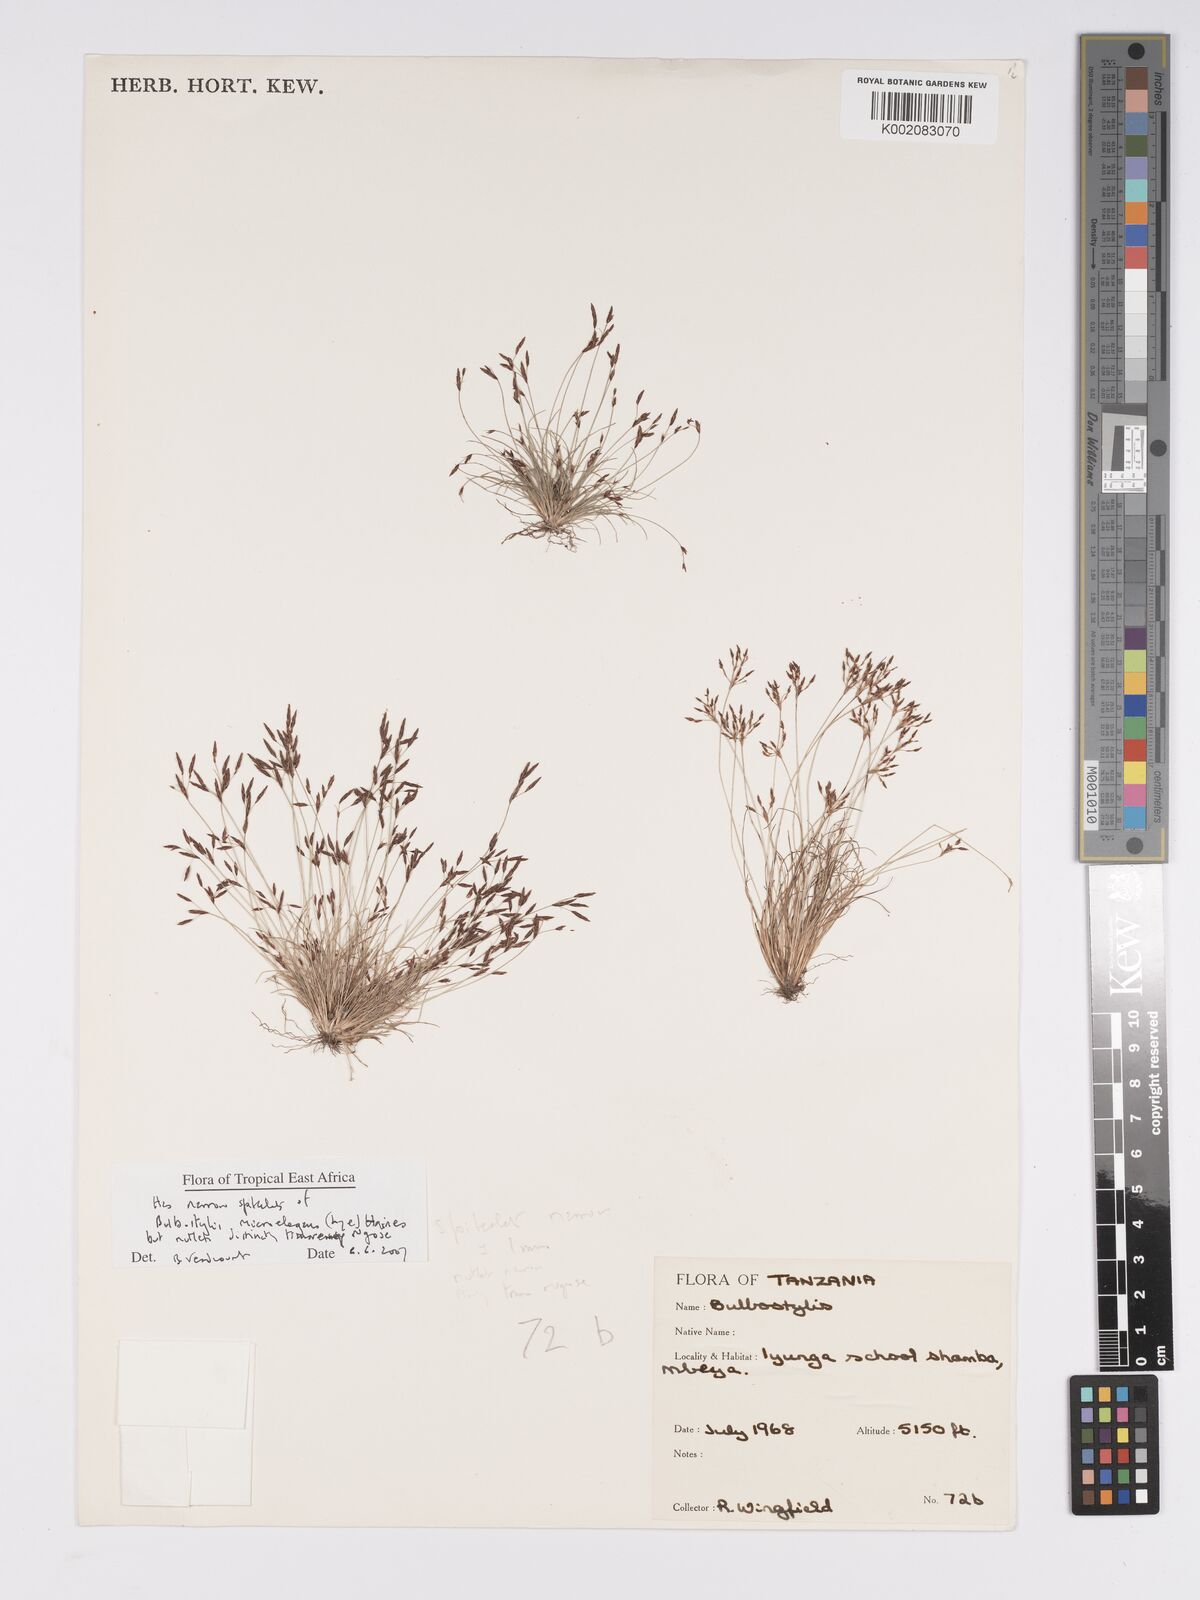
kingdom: Plantae
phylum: Tracheophyta
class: Liliopsida
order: Poales
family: Cyperaceae
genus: Bulbostylis
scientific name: Bulbostylis microelegans
